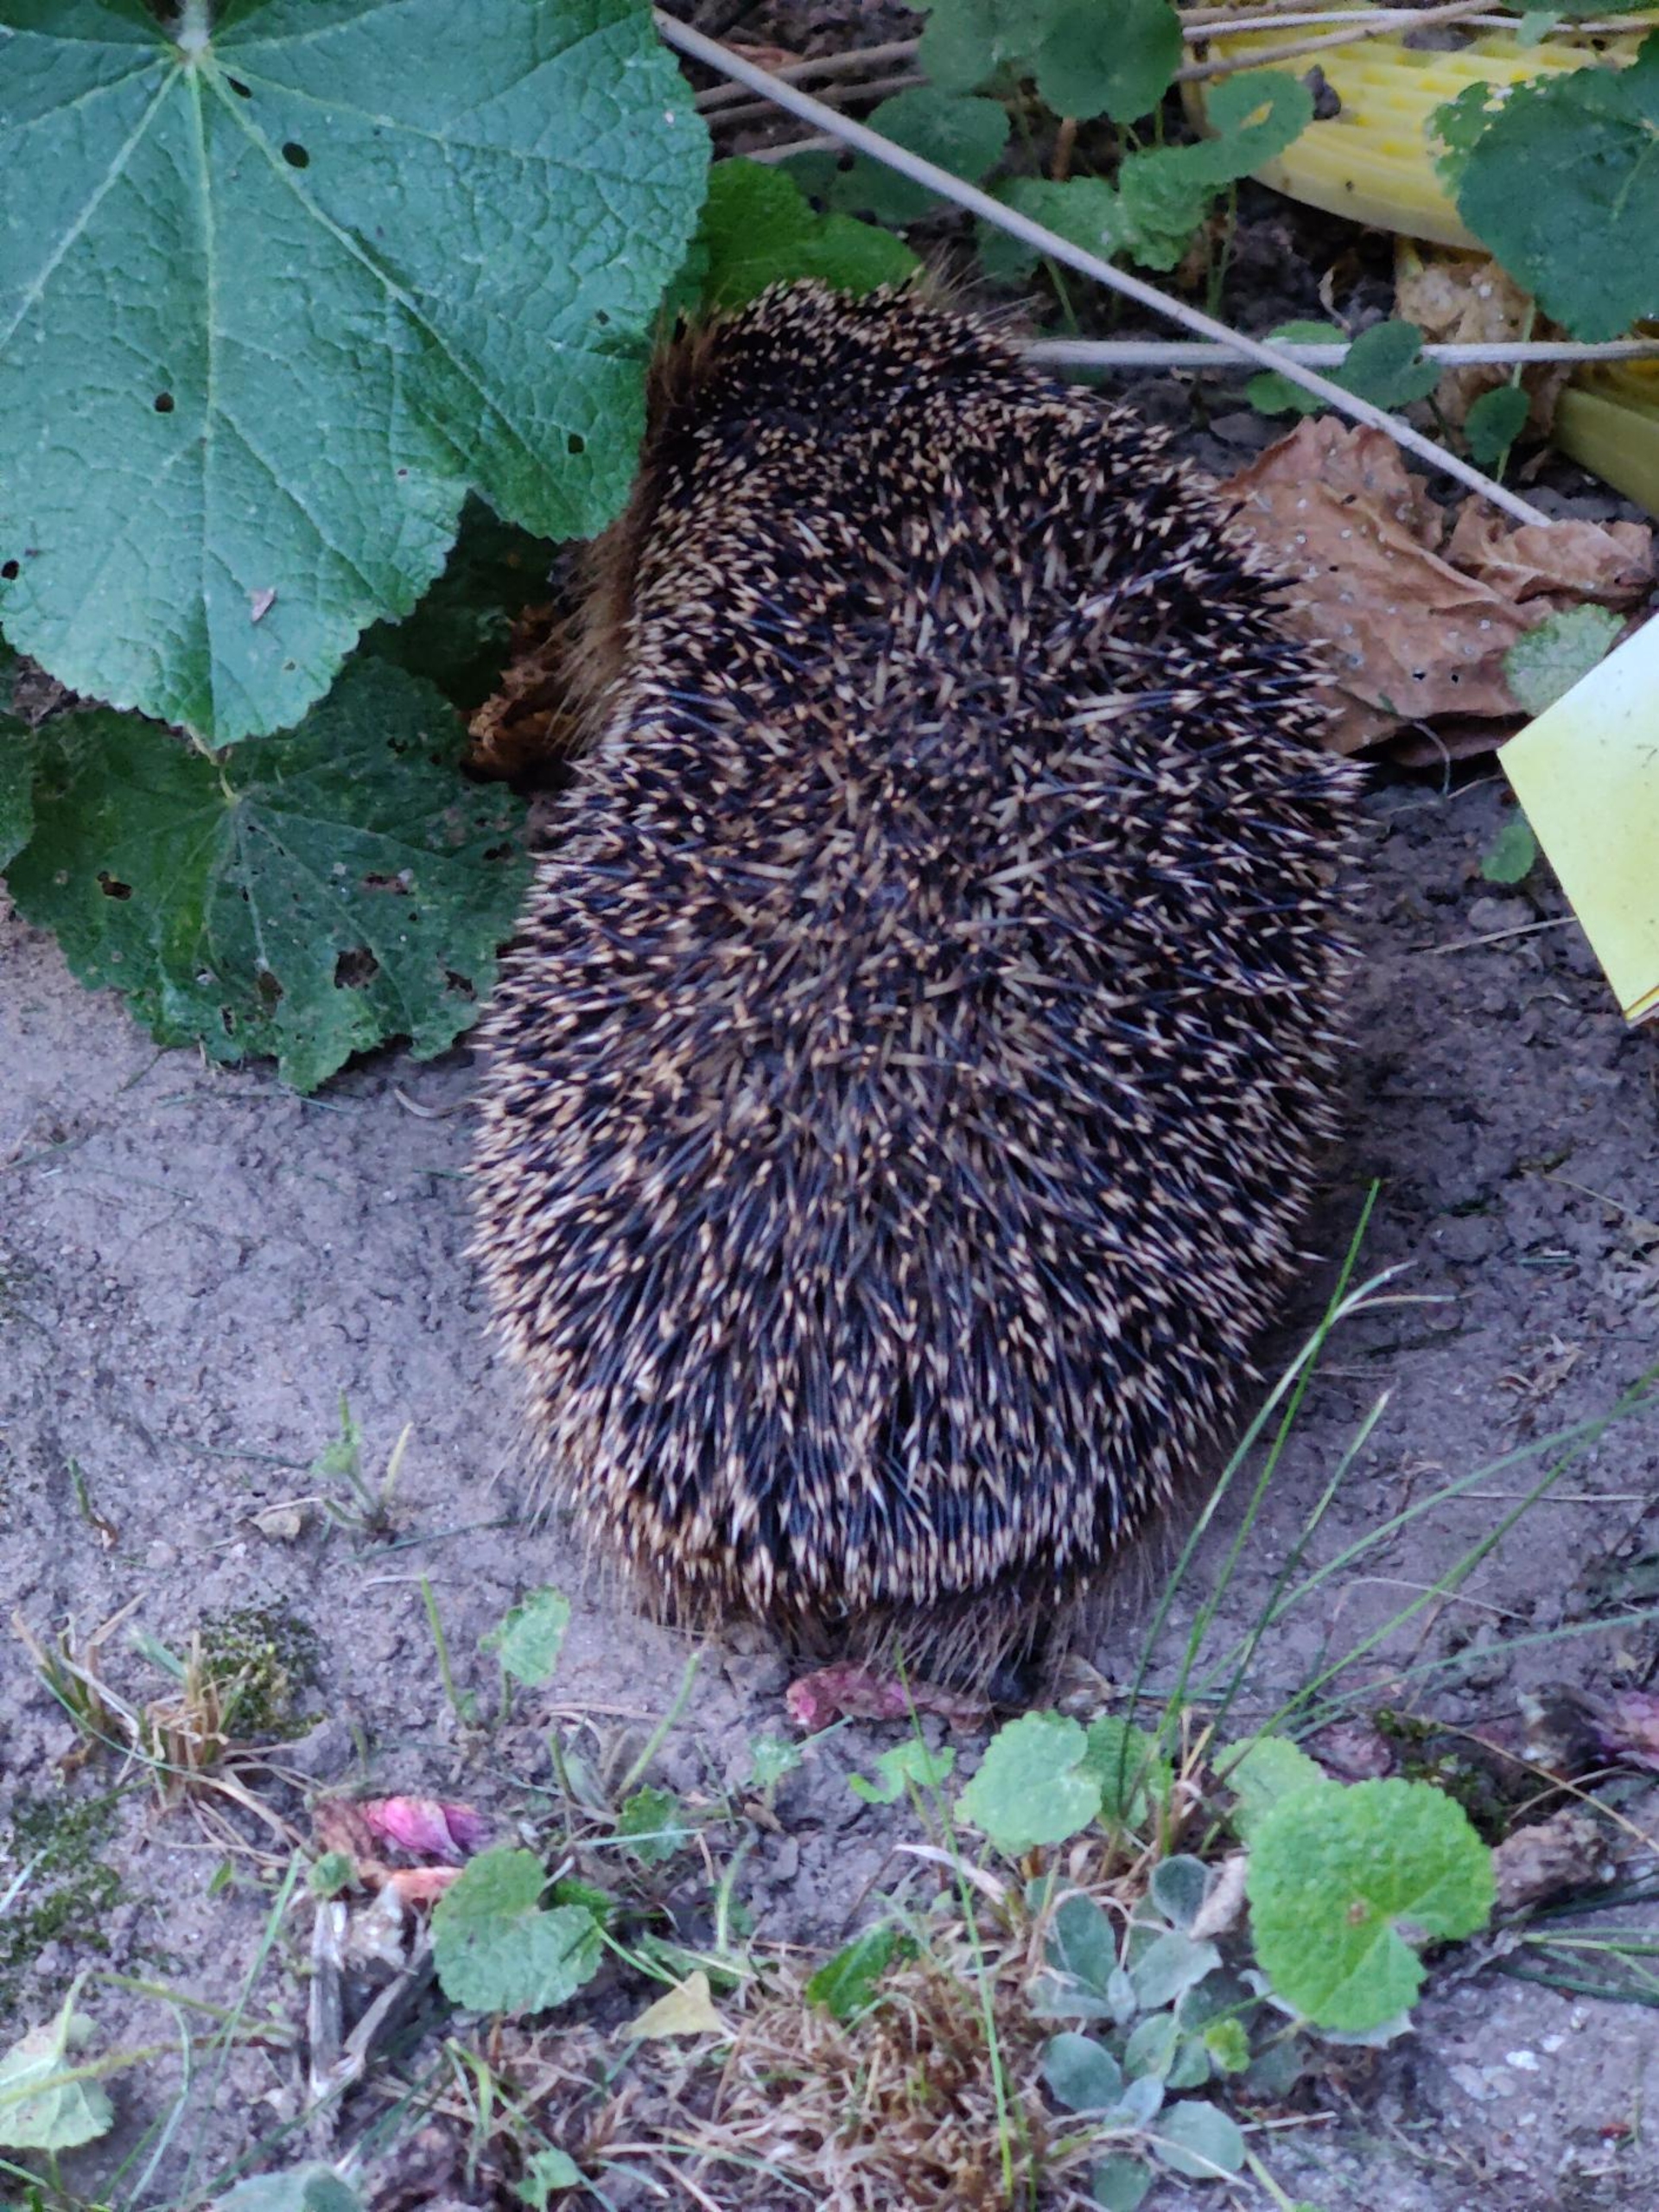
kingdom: Animalia
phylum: Chordata
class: Mammalia
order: Erinaceomorpha
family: Erinaceidae
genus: Erinaceus
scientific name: Erinaceus europaeus
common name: Pindsvin
